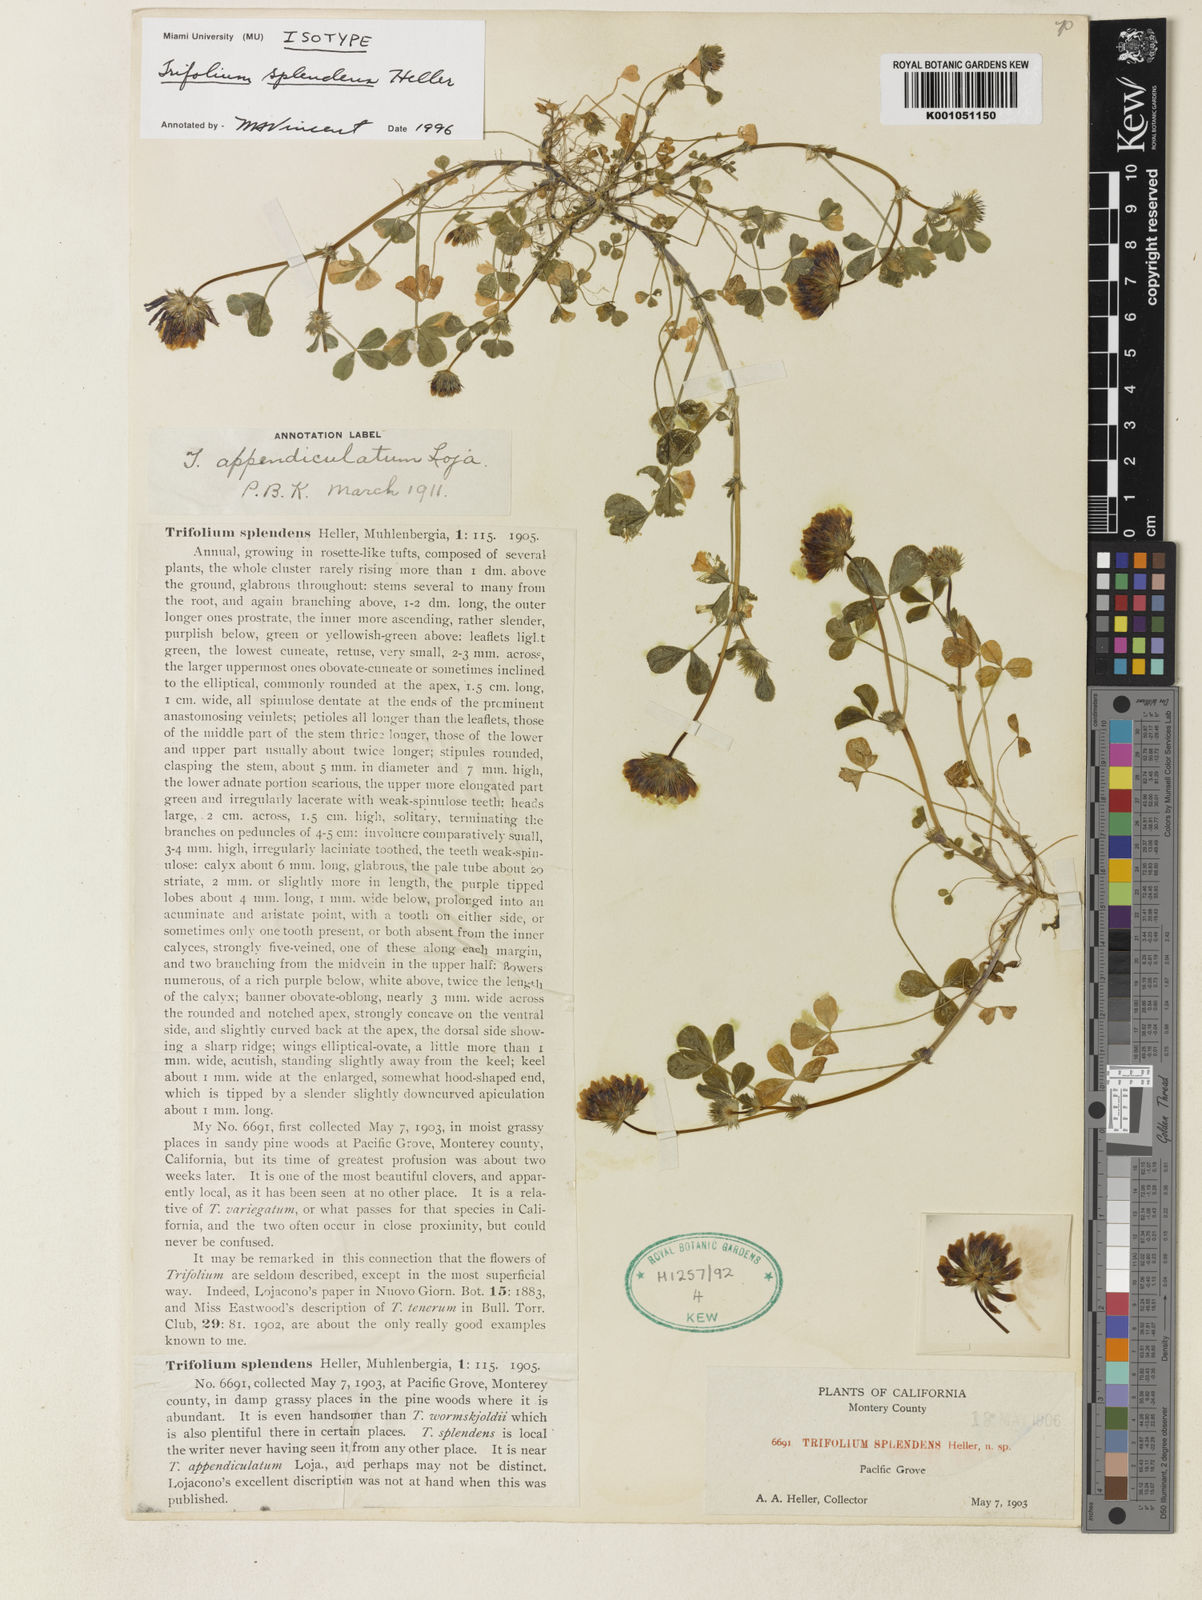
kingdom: Plantae
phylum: Tracheophyta
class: Magnoliopsida
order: Fabales
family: Fabaceae
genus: Trifolium
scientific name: Trifolium appendiculatum
